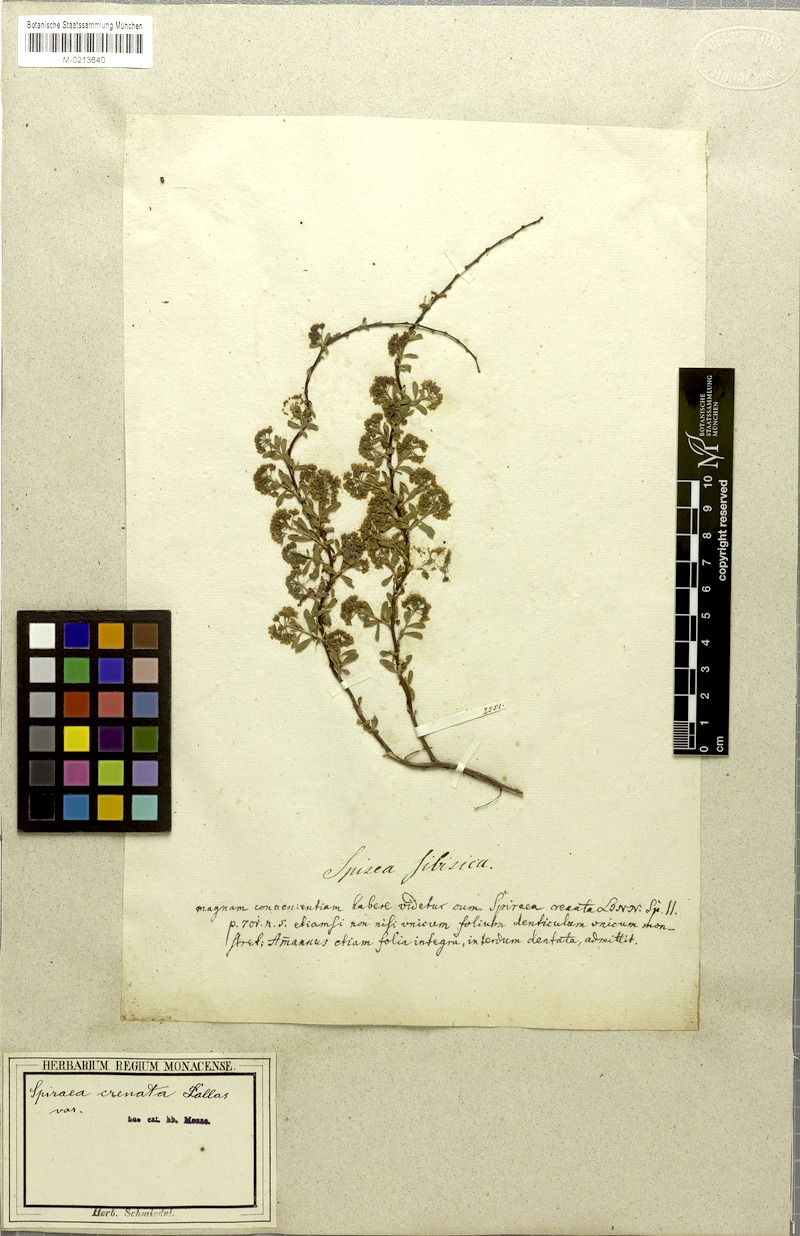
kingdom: Plantae
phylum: Tracheophyta
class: Magnoliopsida
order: Rosales
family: Rosaceae
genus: Spiraea
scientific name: Spiraea crenata
